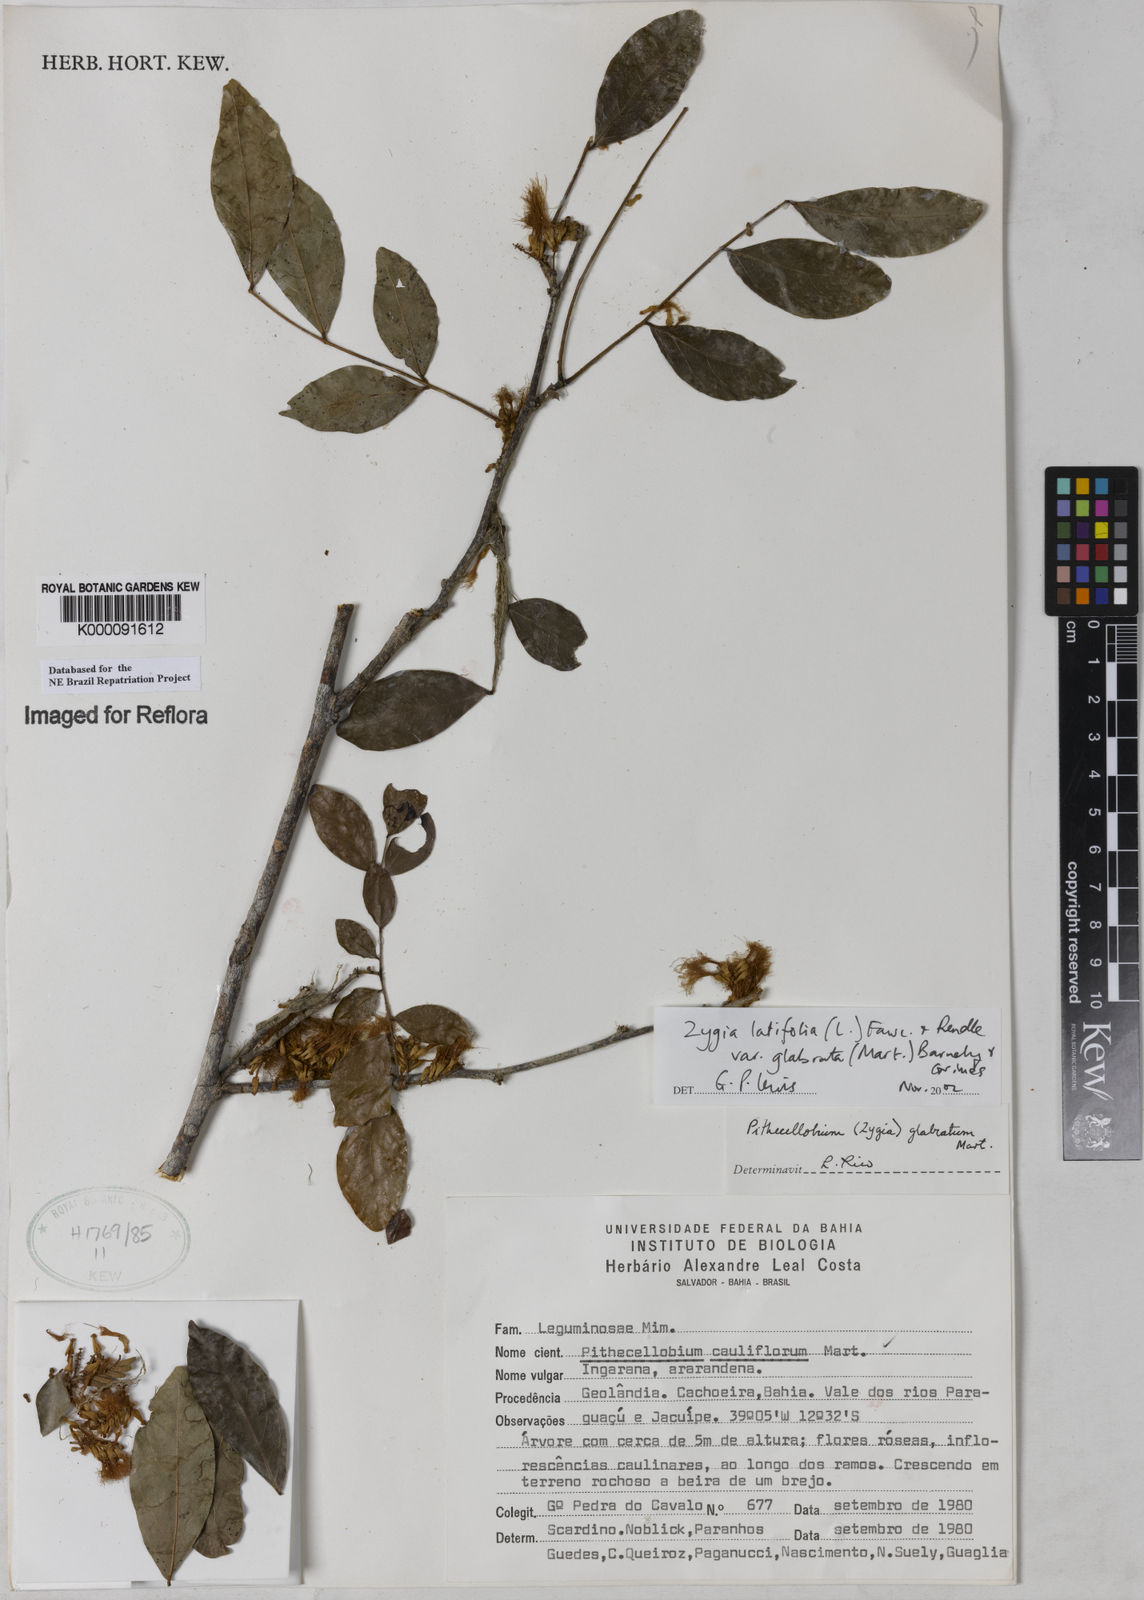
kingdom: Plantae
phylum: Tracheophyta
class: Magnoliopsida
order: Fabales
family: Fabaceae
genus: Zygia
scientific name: Zygia latifolia
